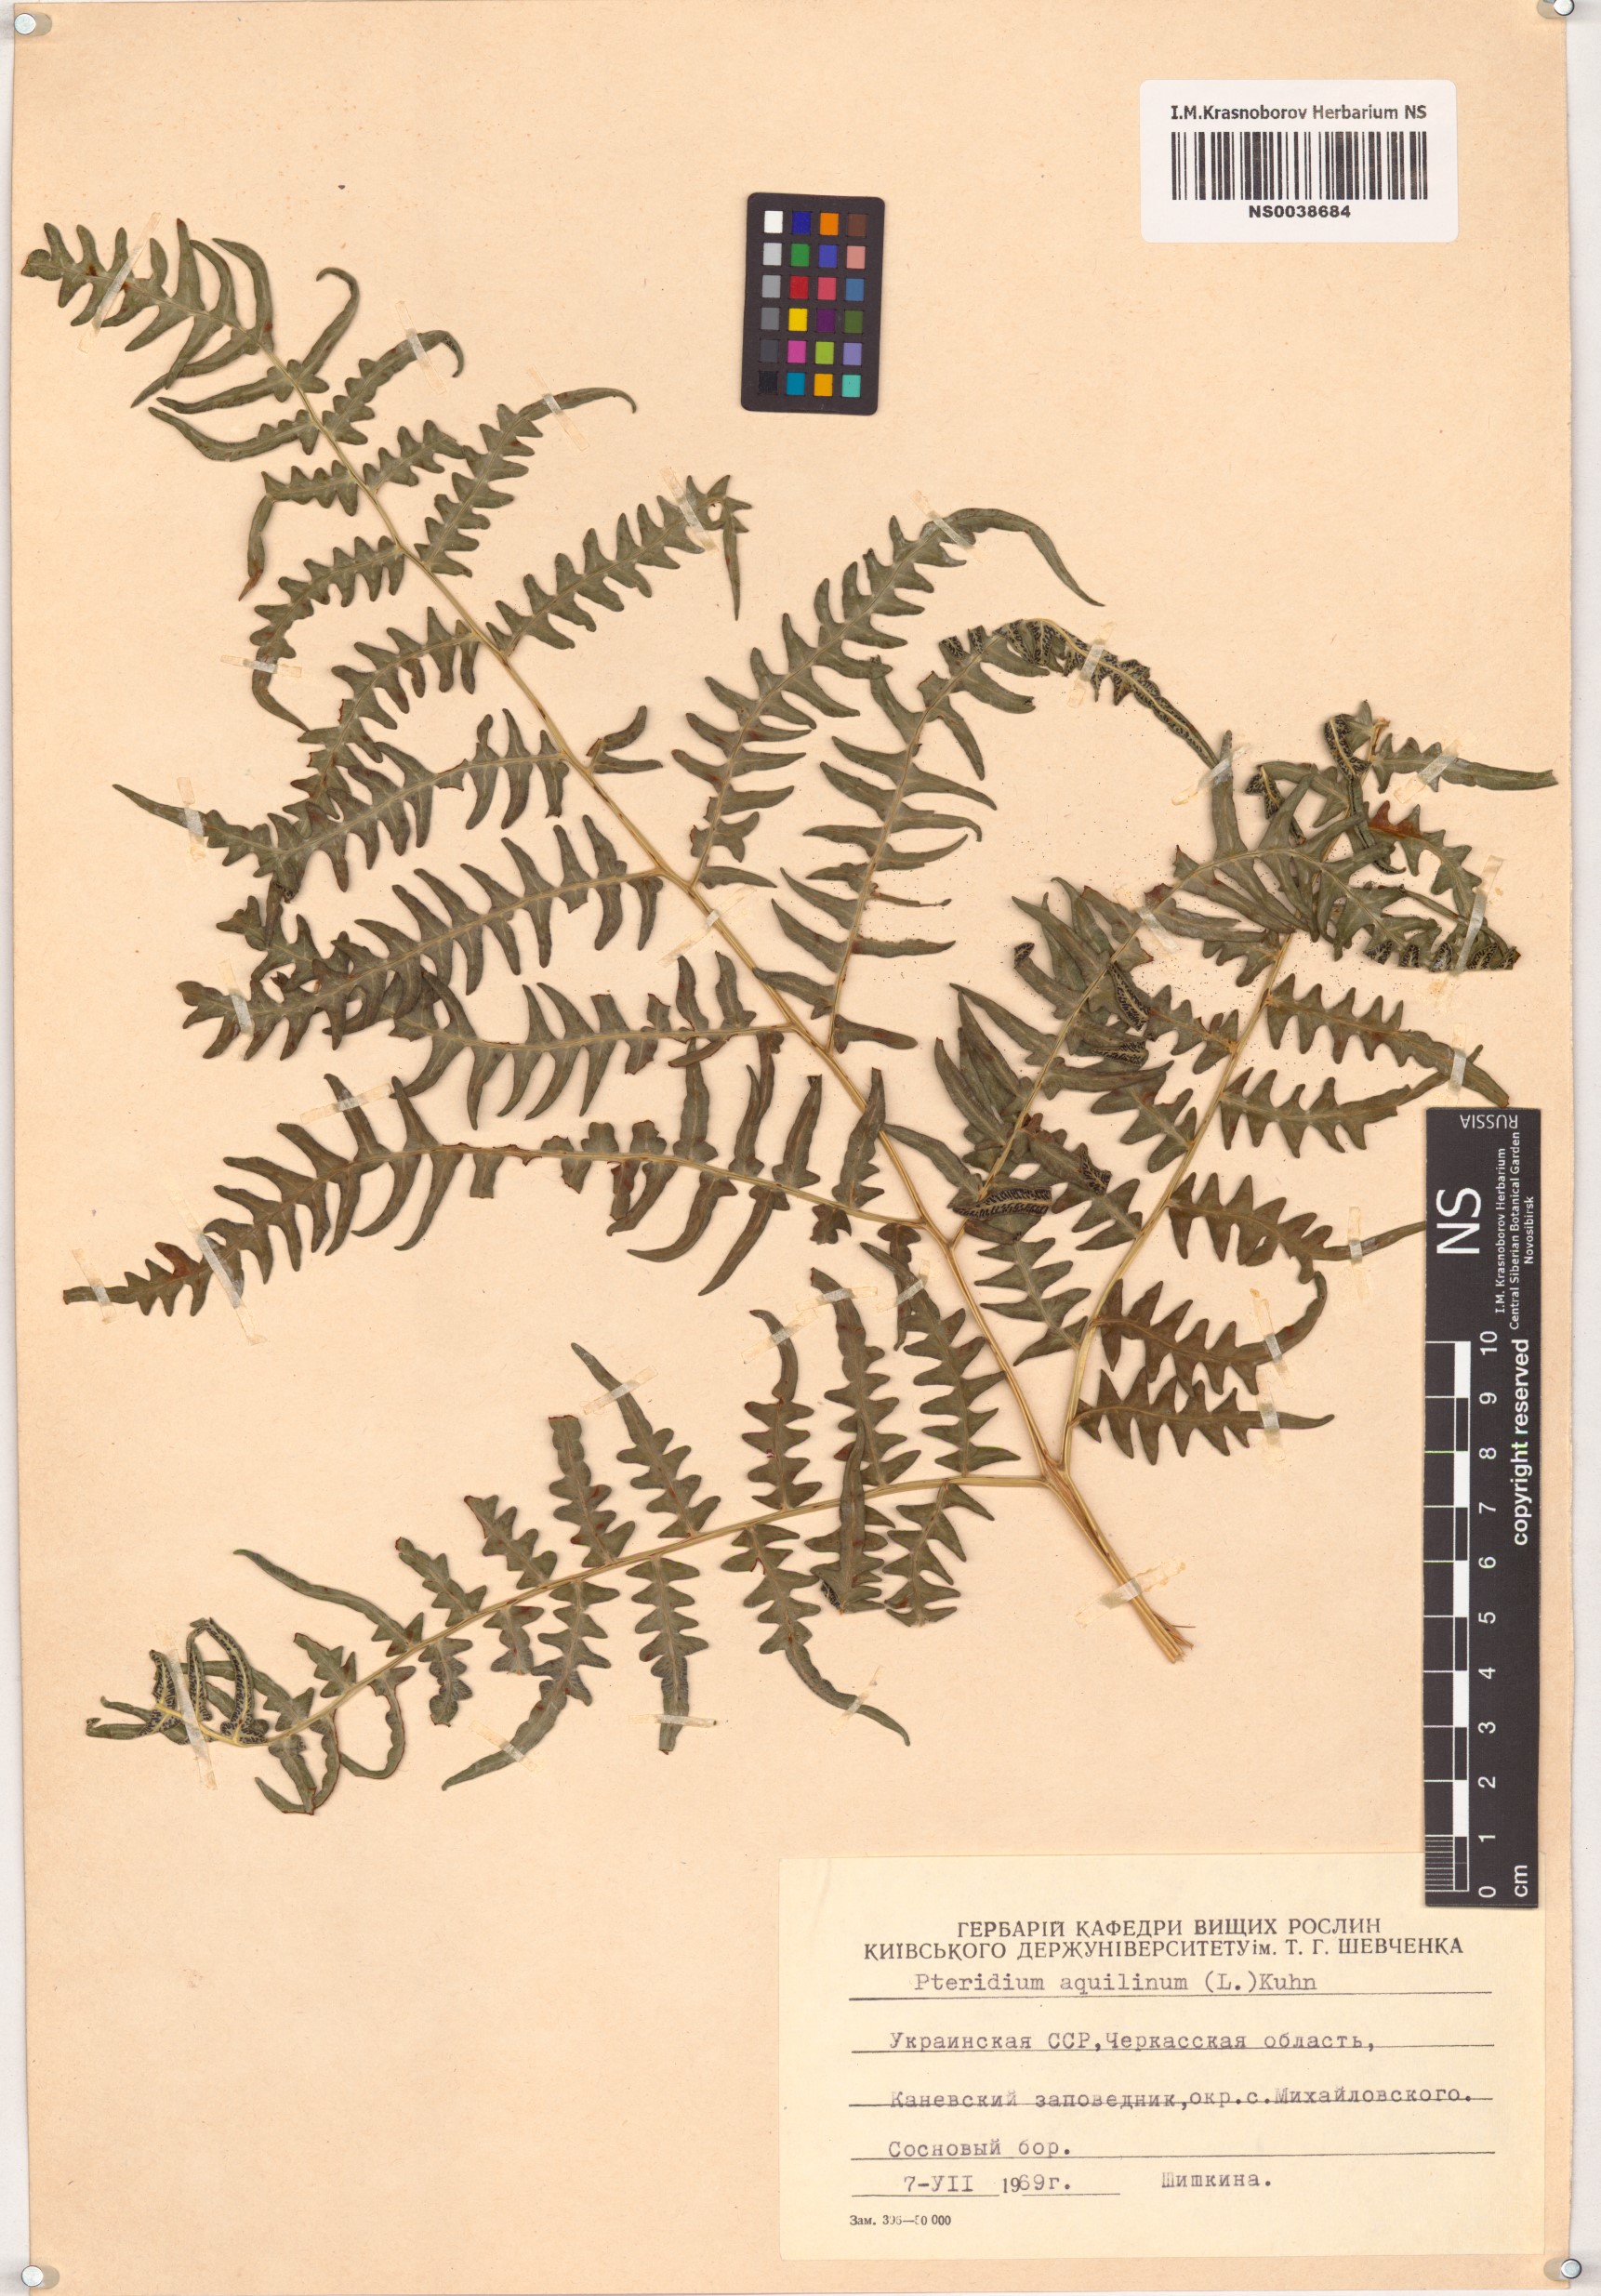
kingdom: Plantae
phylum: Tracheophyta
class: Polypodiopsida
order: Polypodiales
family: Dennstaedtiaceae
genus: Pteridium
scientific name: Pteridium aquilinum
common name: Bracken
